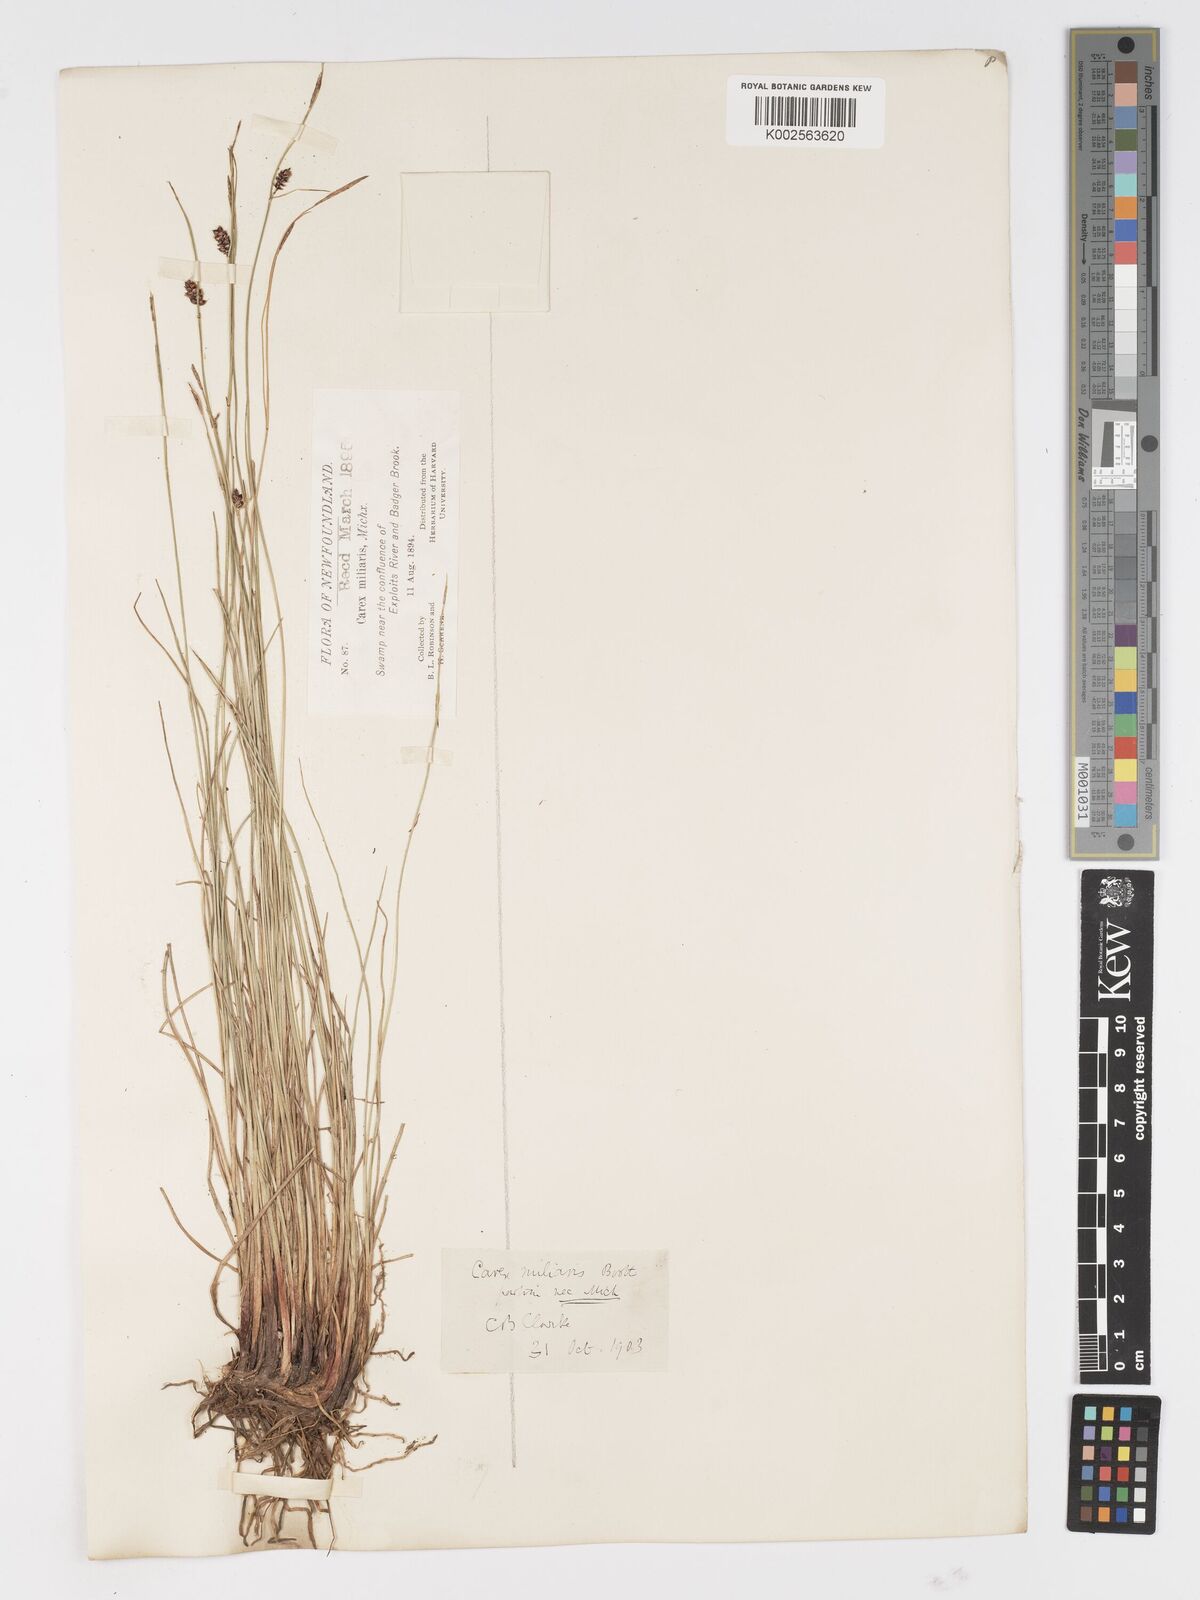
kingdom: Plantae
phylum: Tracheophyta
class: Liliopsida
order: Poales
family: Cyperaceae
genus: Carex
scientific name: Carex
